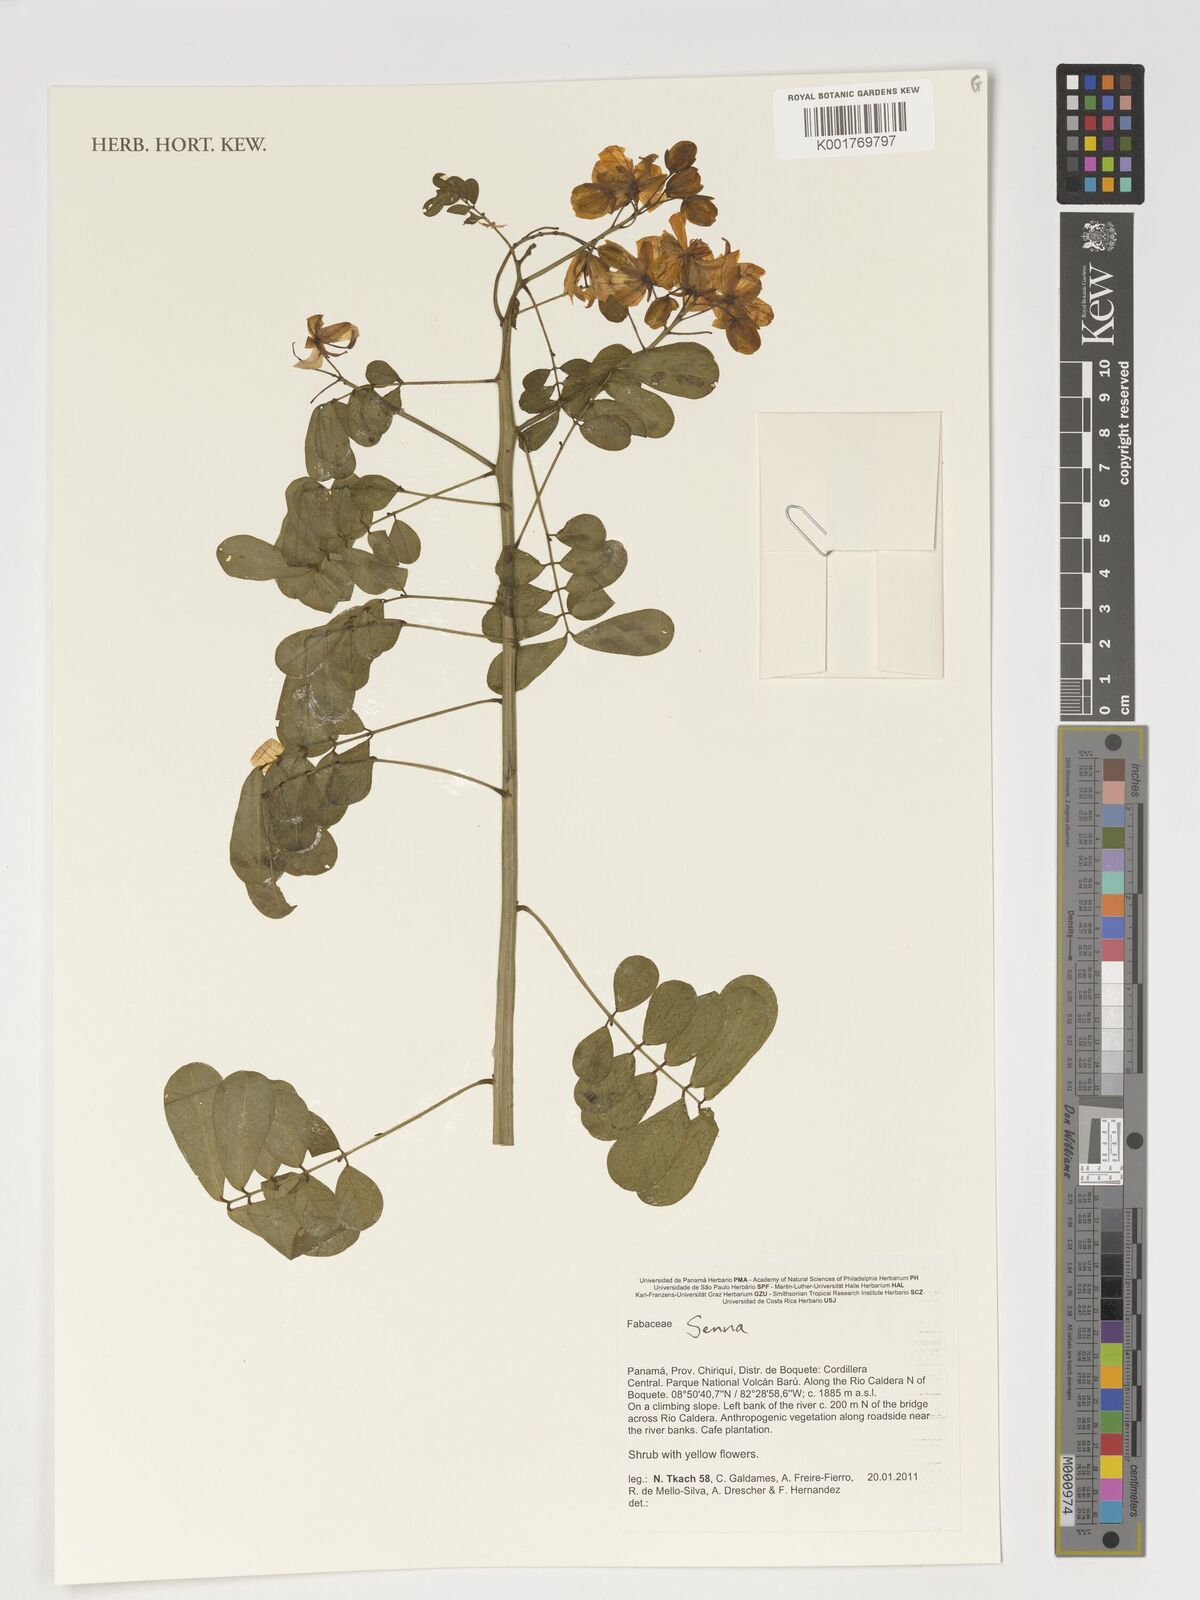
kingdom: Plantae
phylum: Tracheophyta
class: Magnoliopsida
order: Fabales
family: Fabaceae
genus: Senna
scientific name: Senna
